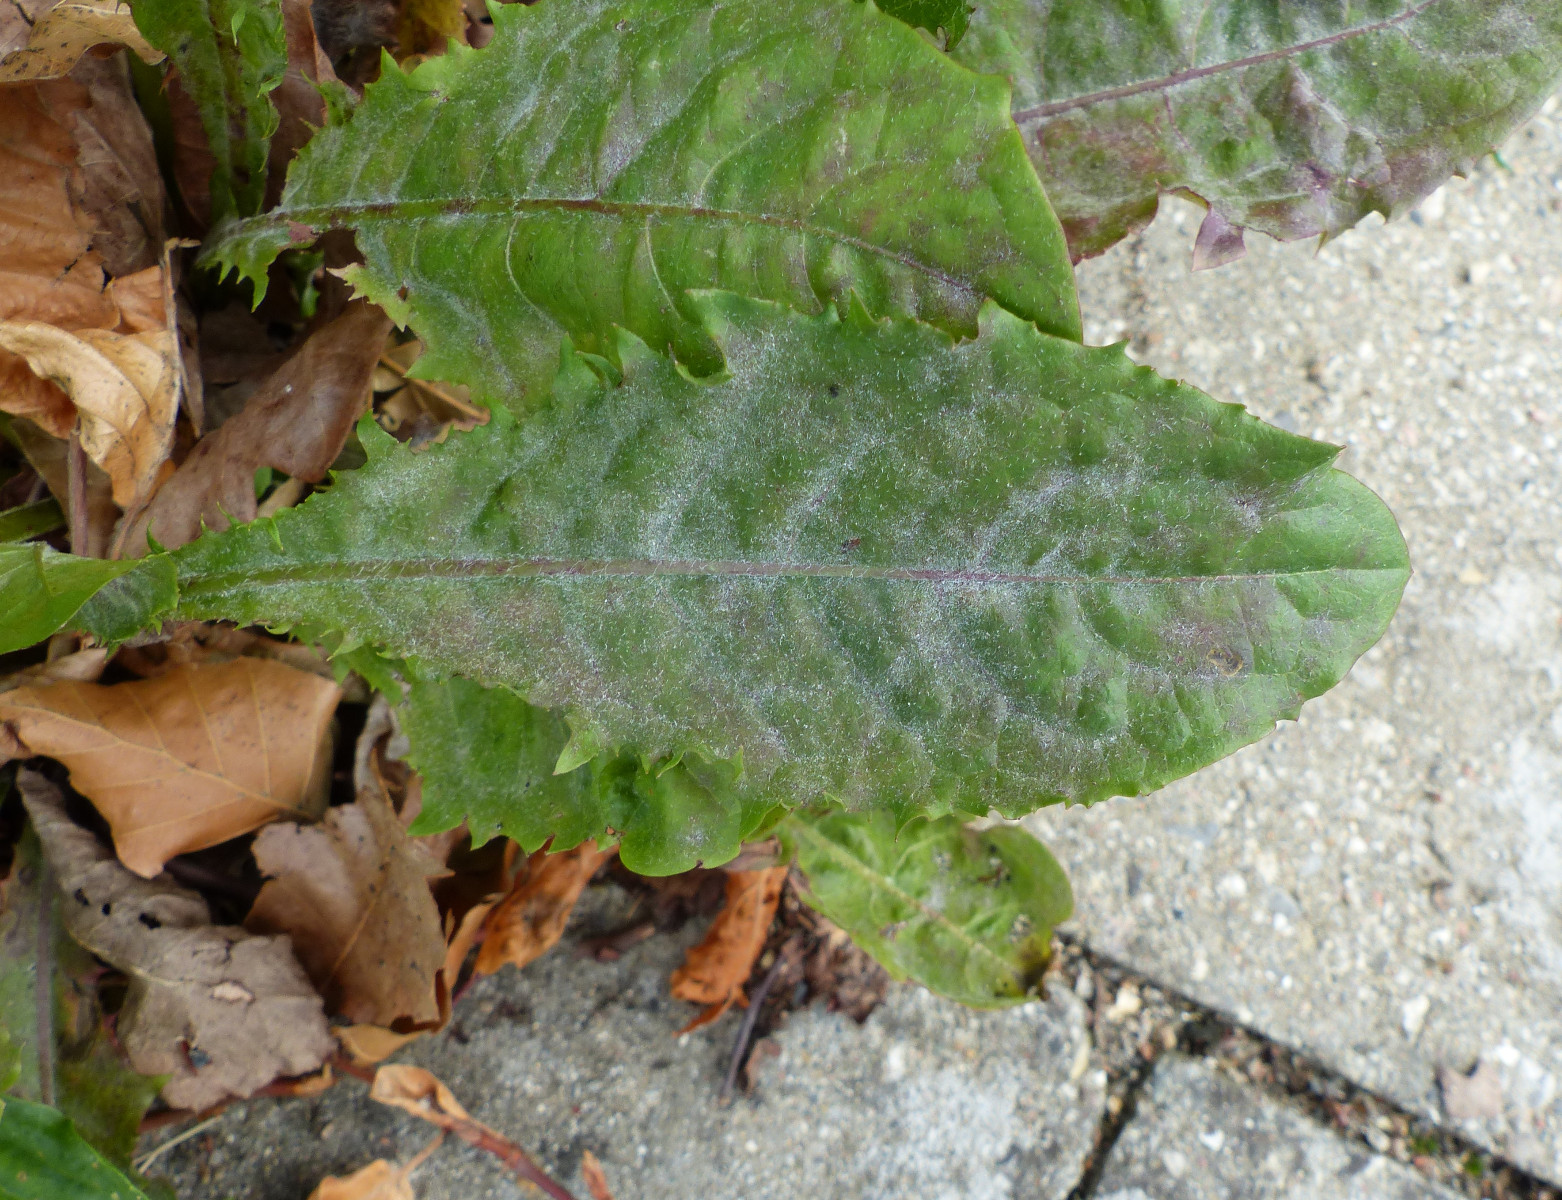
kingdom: Fungi
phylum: Ascomycota
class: Leotiomycetes
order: Helotiales
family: Erysiphaceae
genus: Podosphaera
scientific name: Podosphaera erigerontis-canadensis
